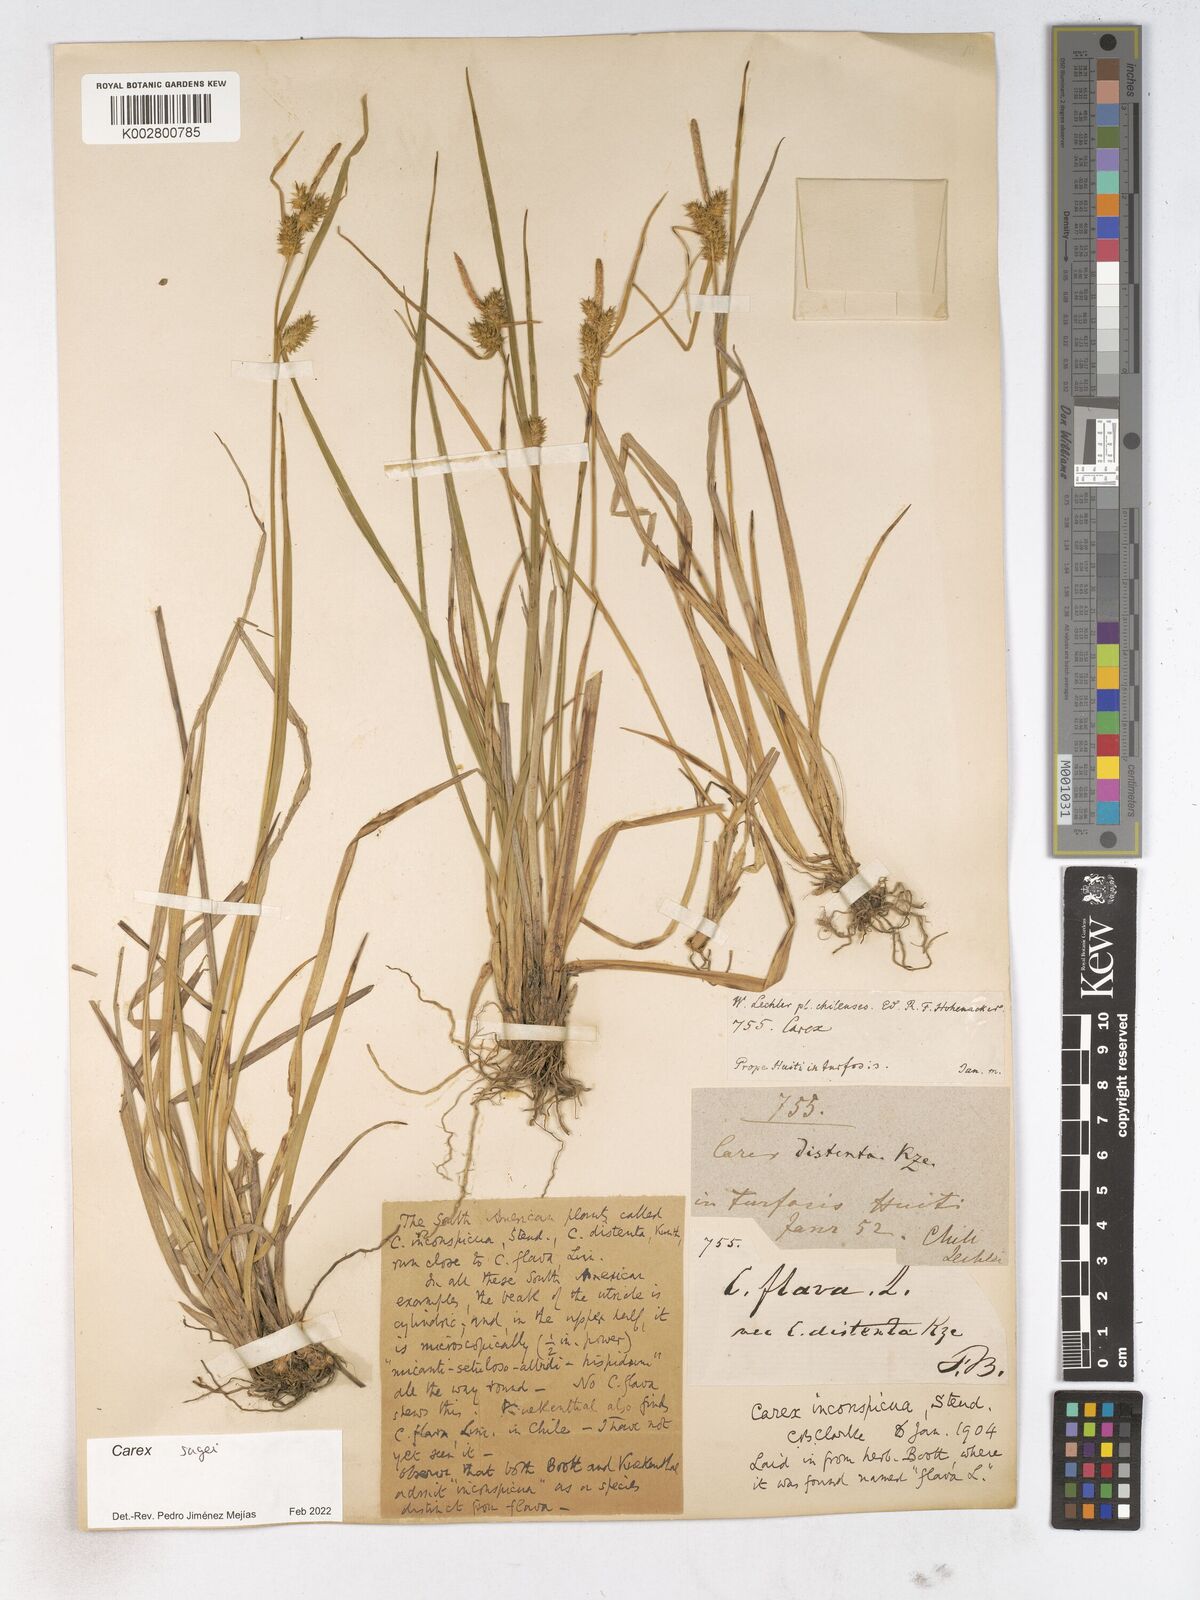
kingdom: Plantae
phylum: Tracheophyta
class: Liliopsida
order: Poales
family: Cyperaceae
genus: Carex
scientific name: Carex sagei
